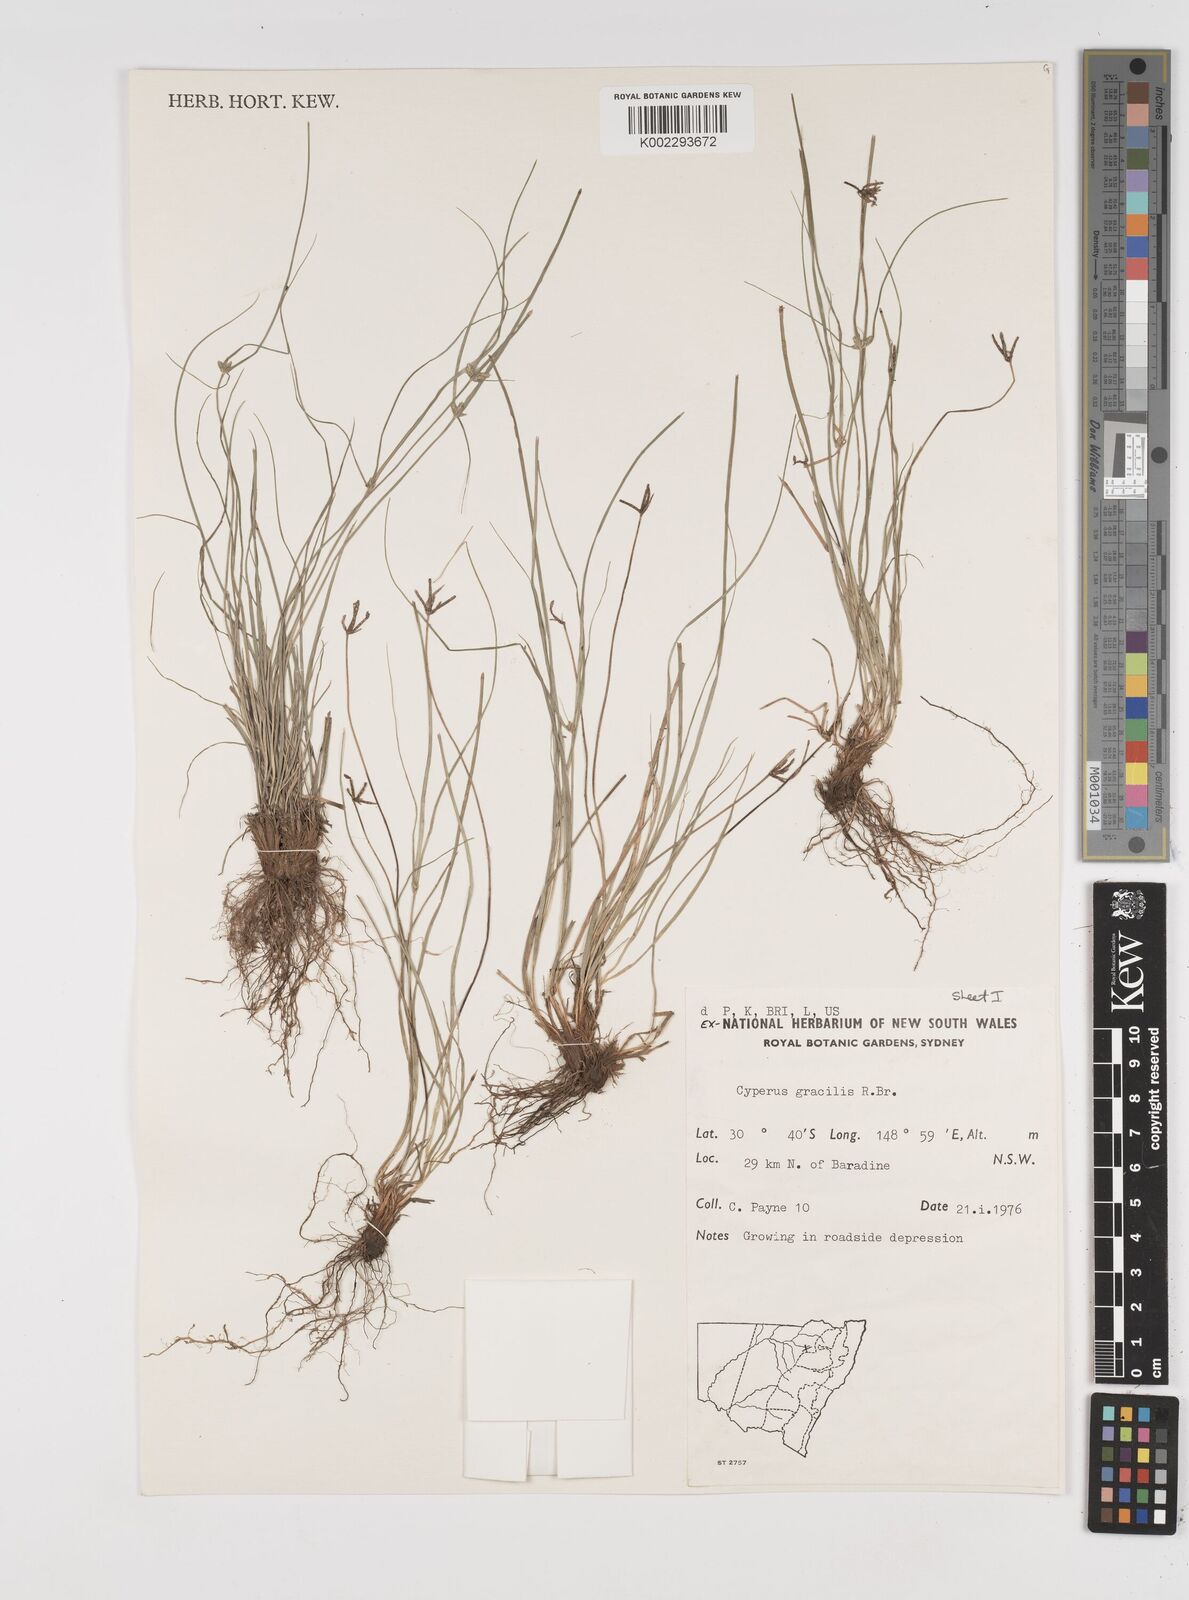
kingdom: Plantae
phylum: Tracheophyta
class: Liliopsida
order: Poales
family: Cyperaceae
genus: Cyperus
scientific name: Cyperus gracilis
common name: Slimjim flatsedge
